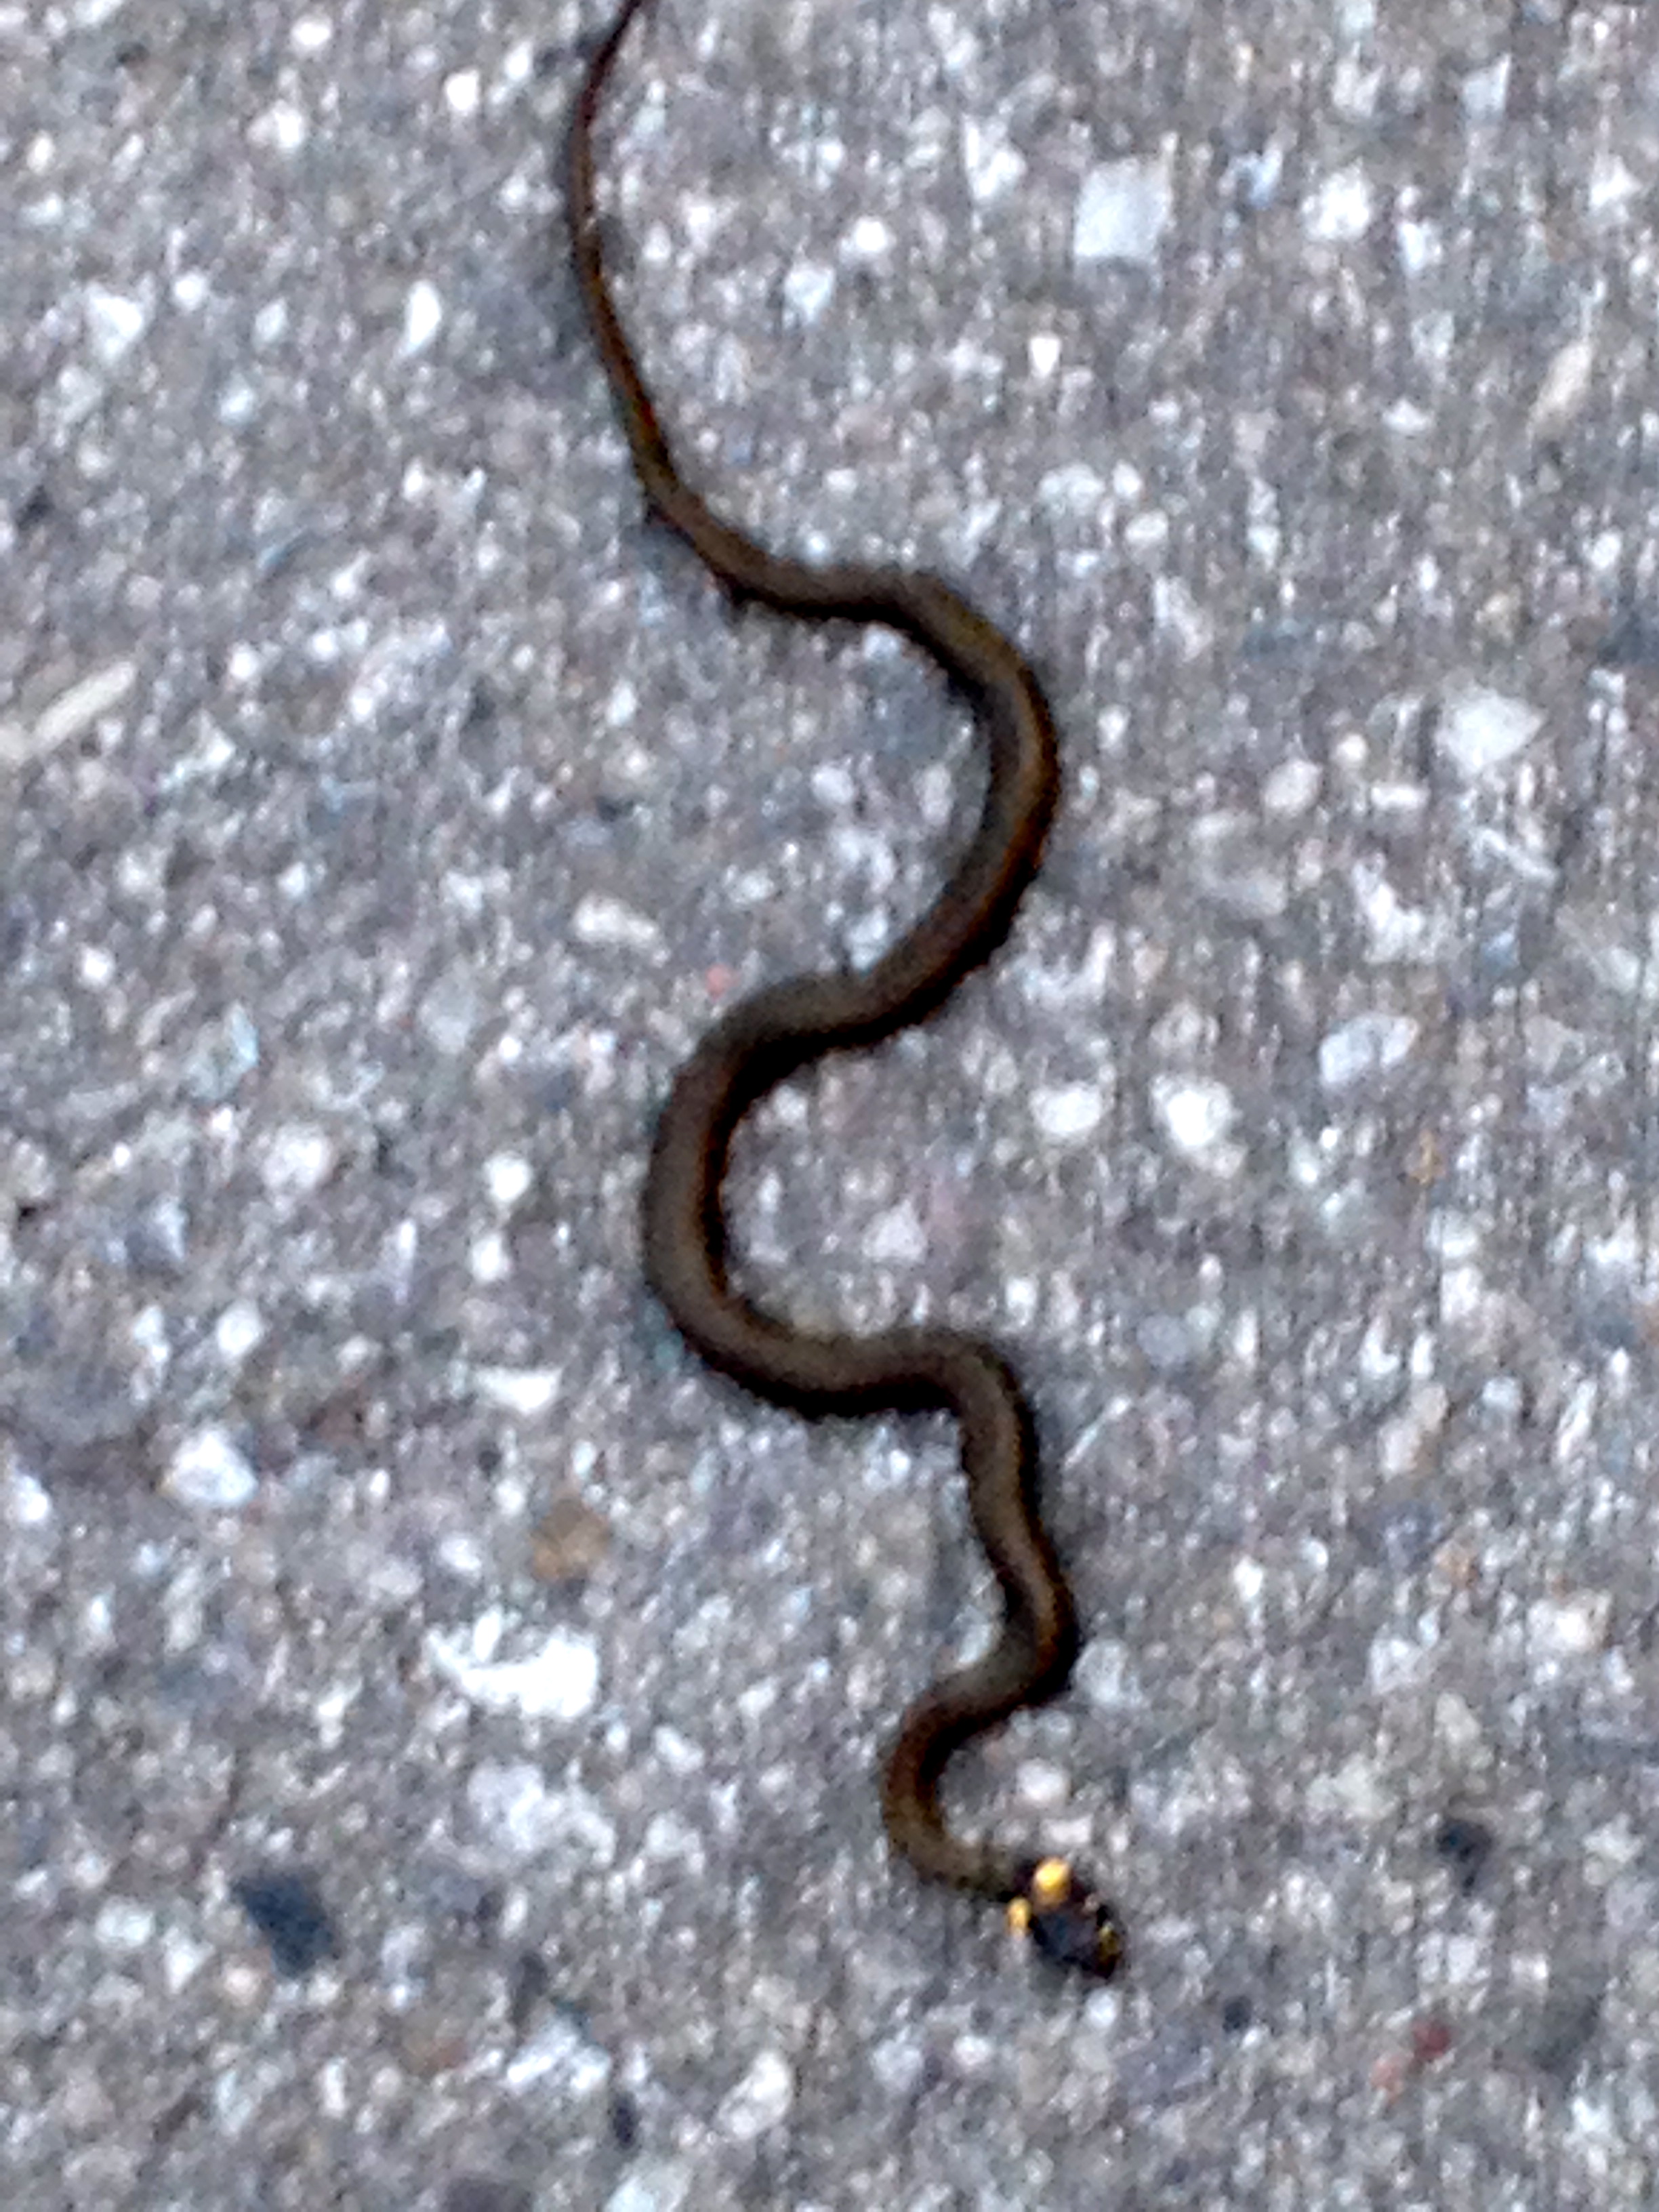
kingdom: Animalia
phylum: Chordata
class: Squamata
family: Colubridae
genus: Natrix
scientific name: Natrix natrix
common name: Grass snake
